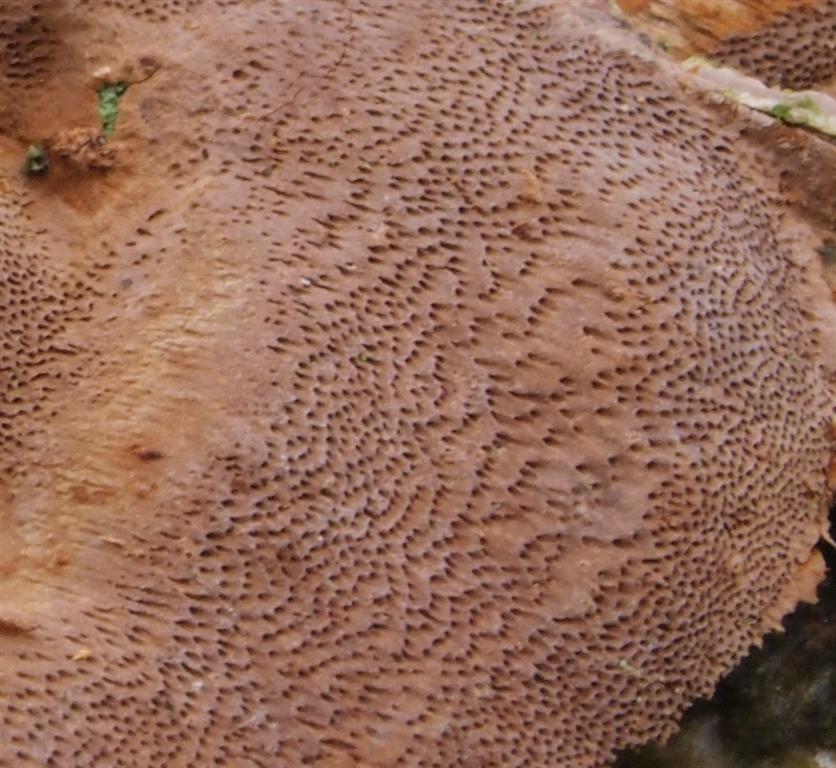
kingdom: Fungi
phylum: Basidiomycota
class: Agaricomycetes
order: Hymenochaetales
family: Hymenochaetaceae
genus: Fomitiporia
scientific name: Fomitiporia punctata
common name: pude-ildporesvamp
